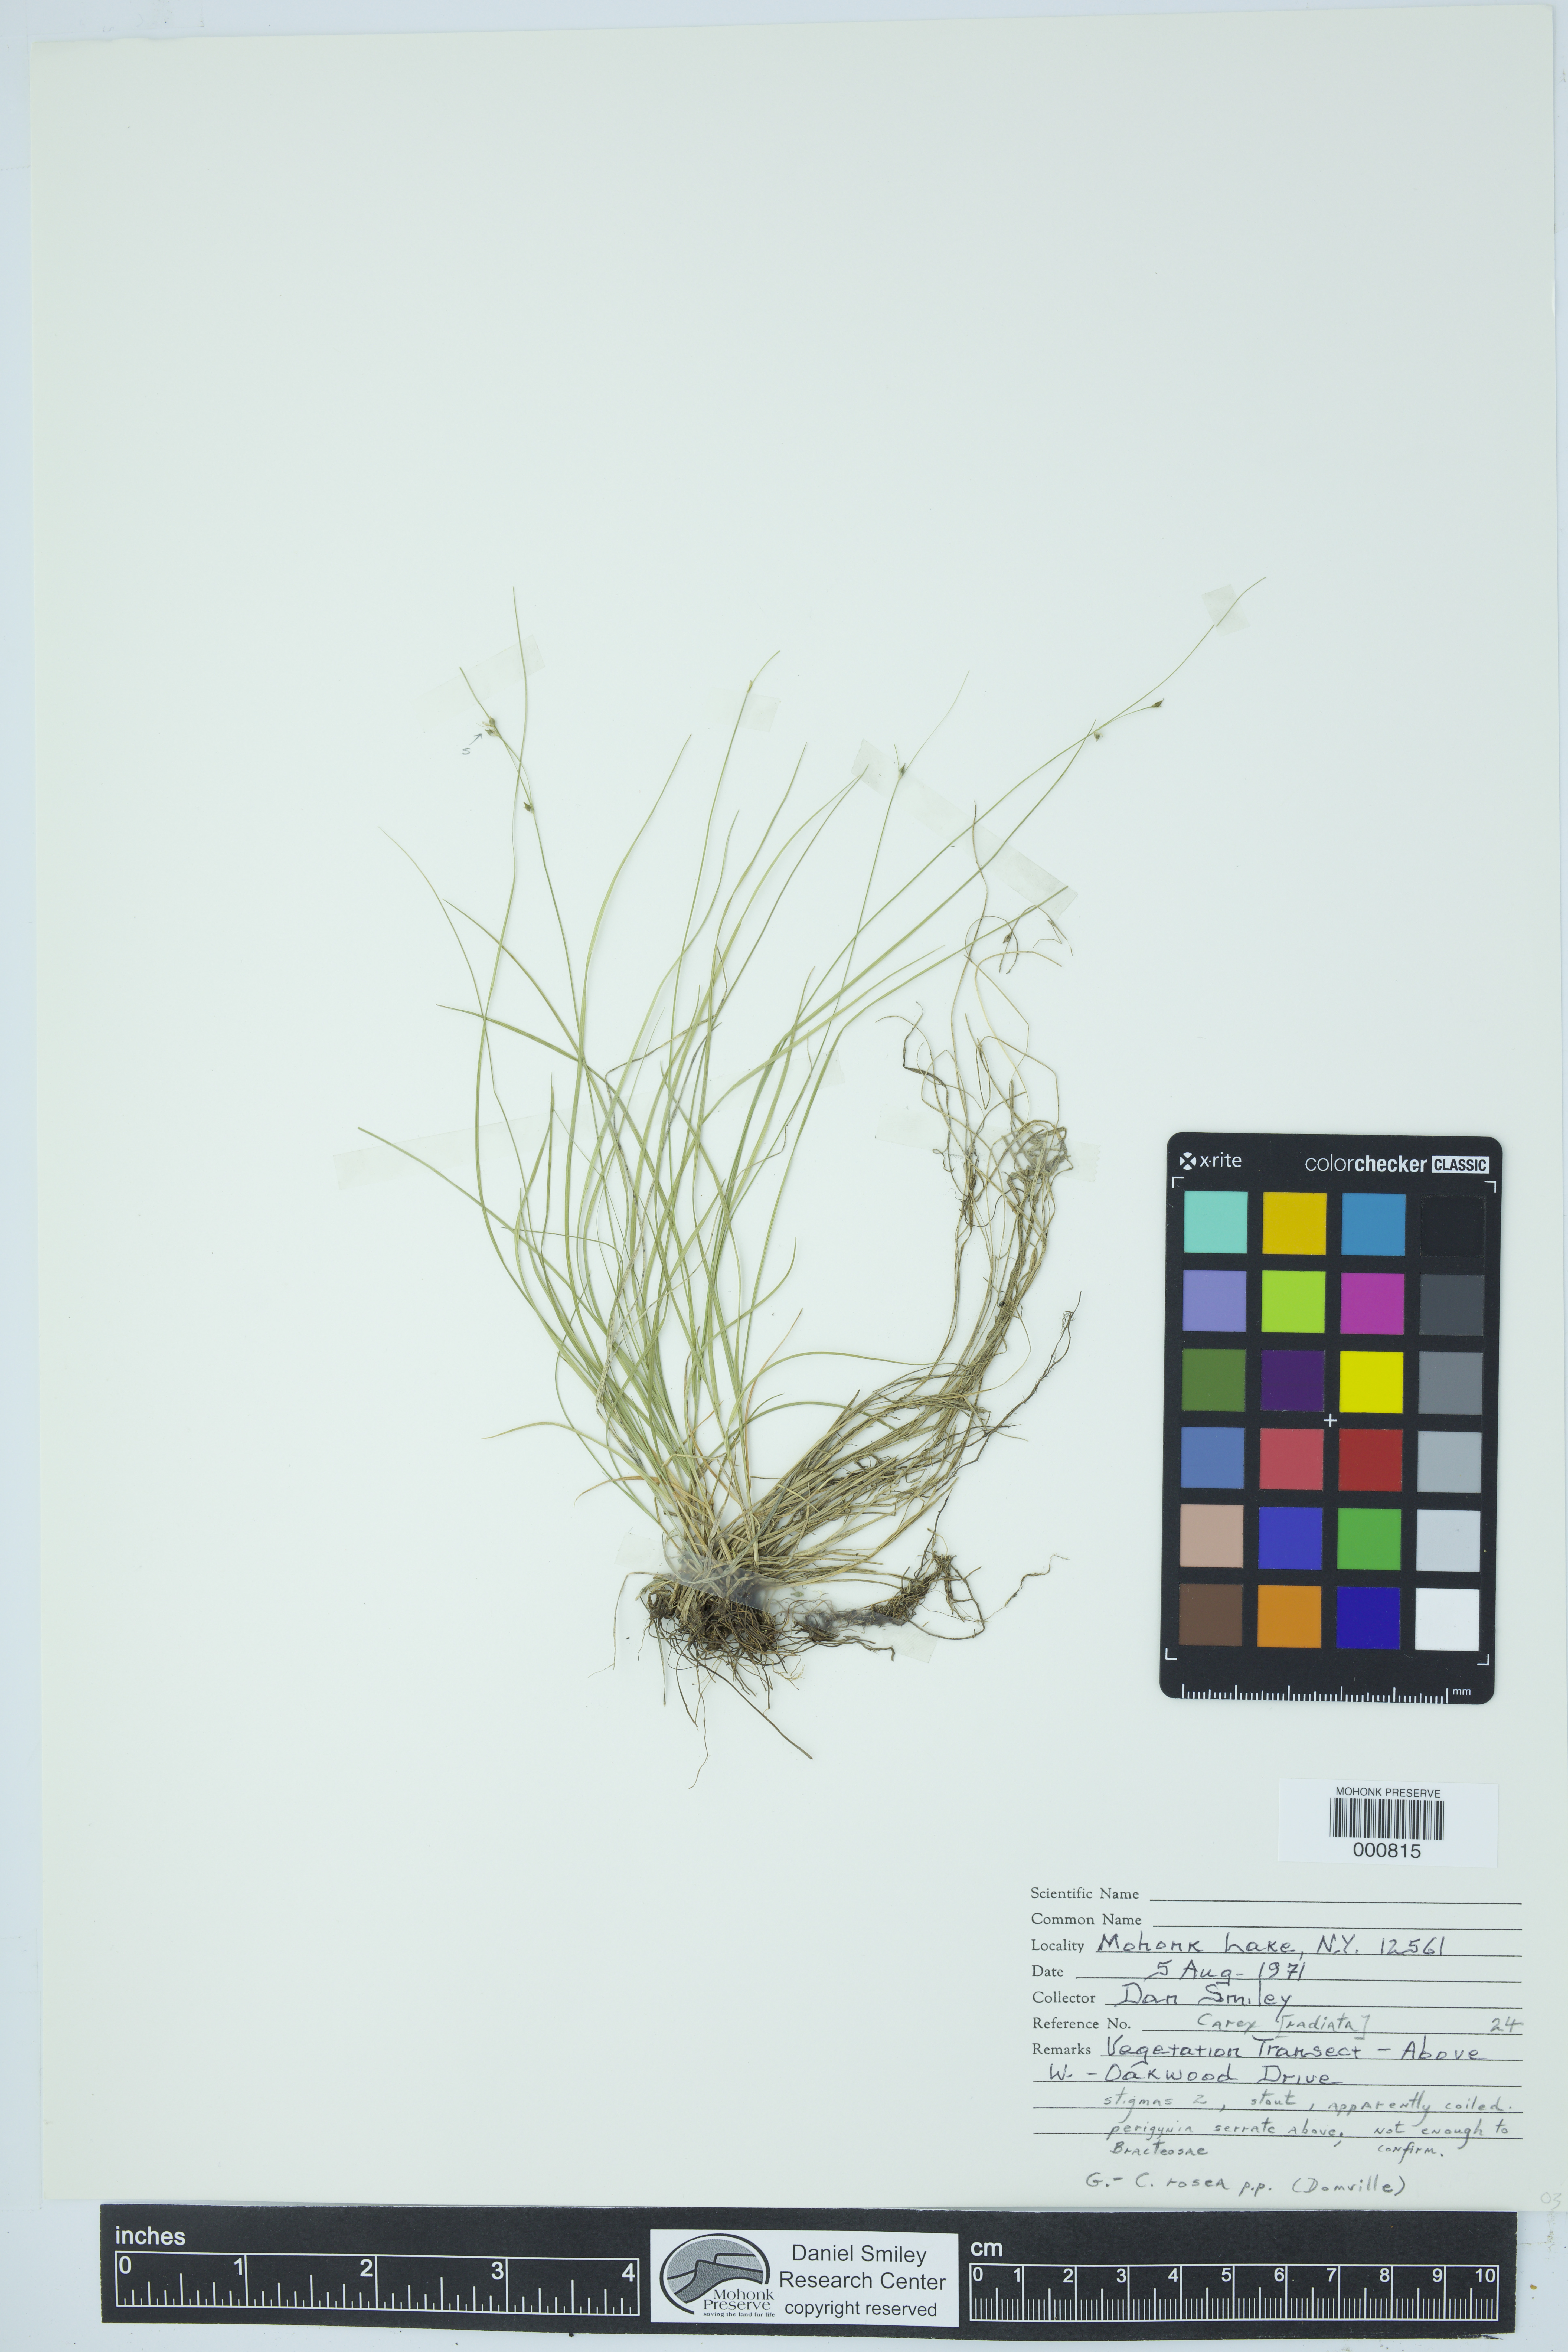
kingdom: Plantae
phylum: Tracheophyta
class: Liliopsida
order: Poales
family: Cyperaceae
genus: Carex
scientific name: Carex radiata
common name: Eastern star sedge
